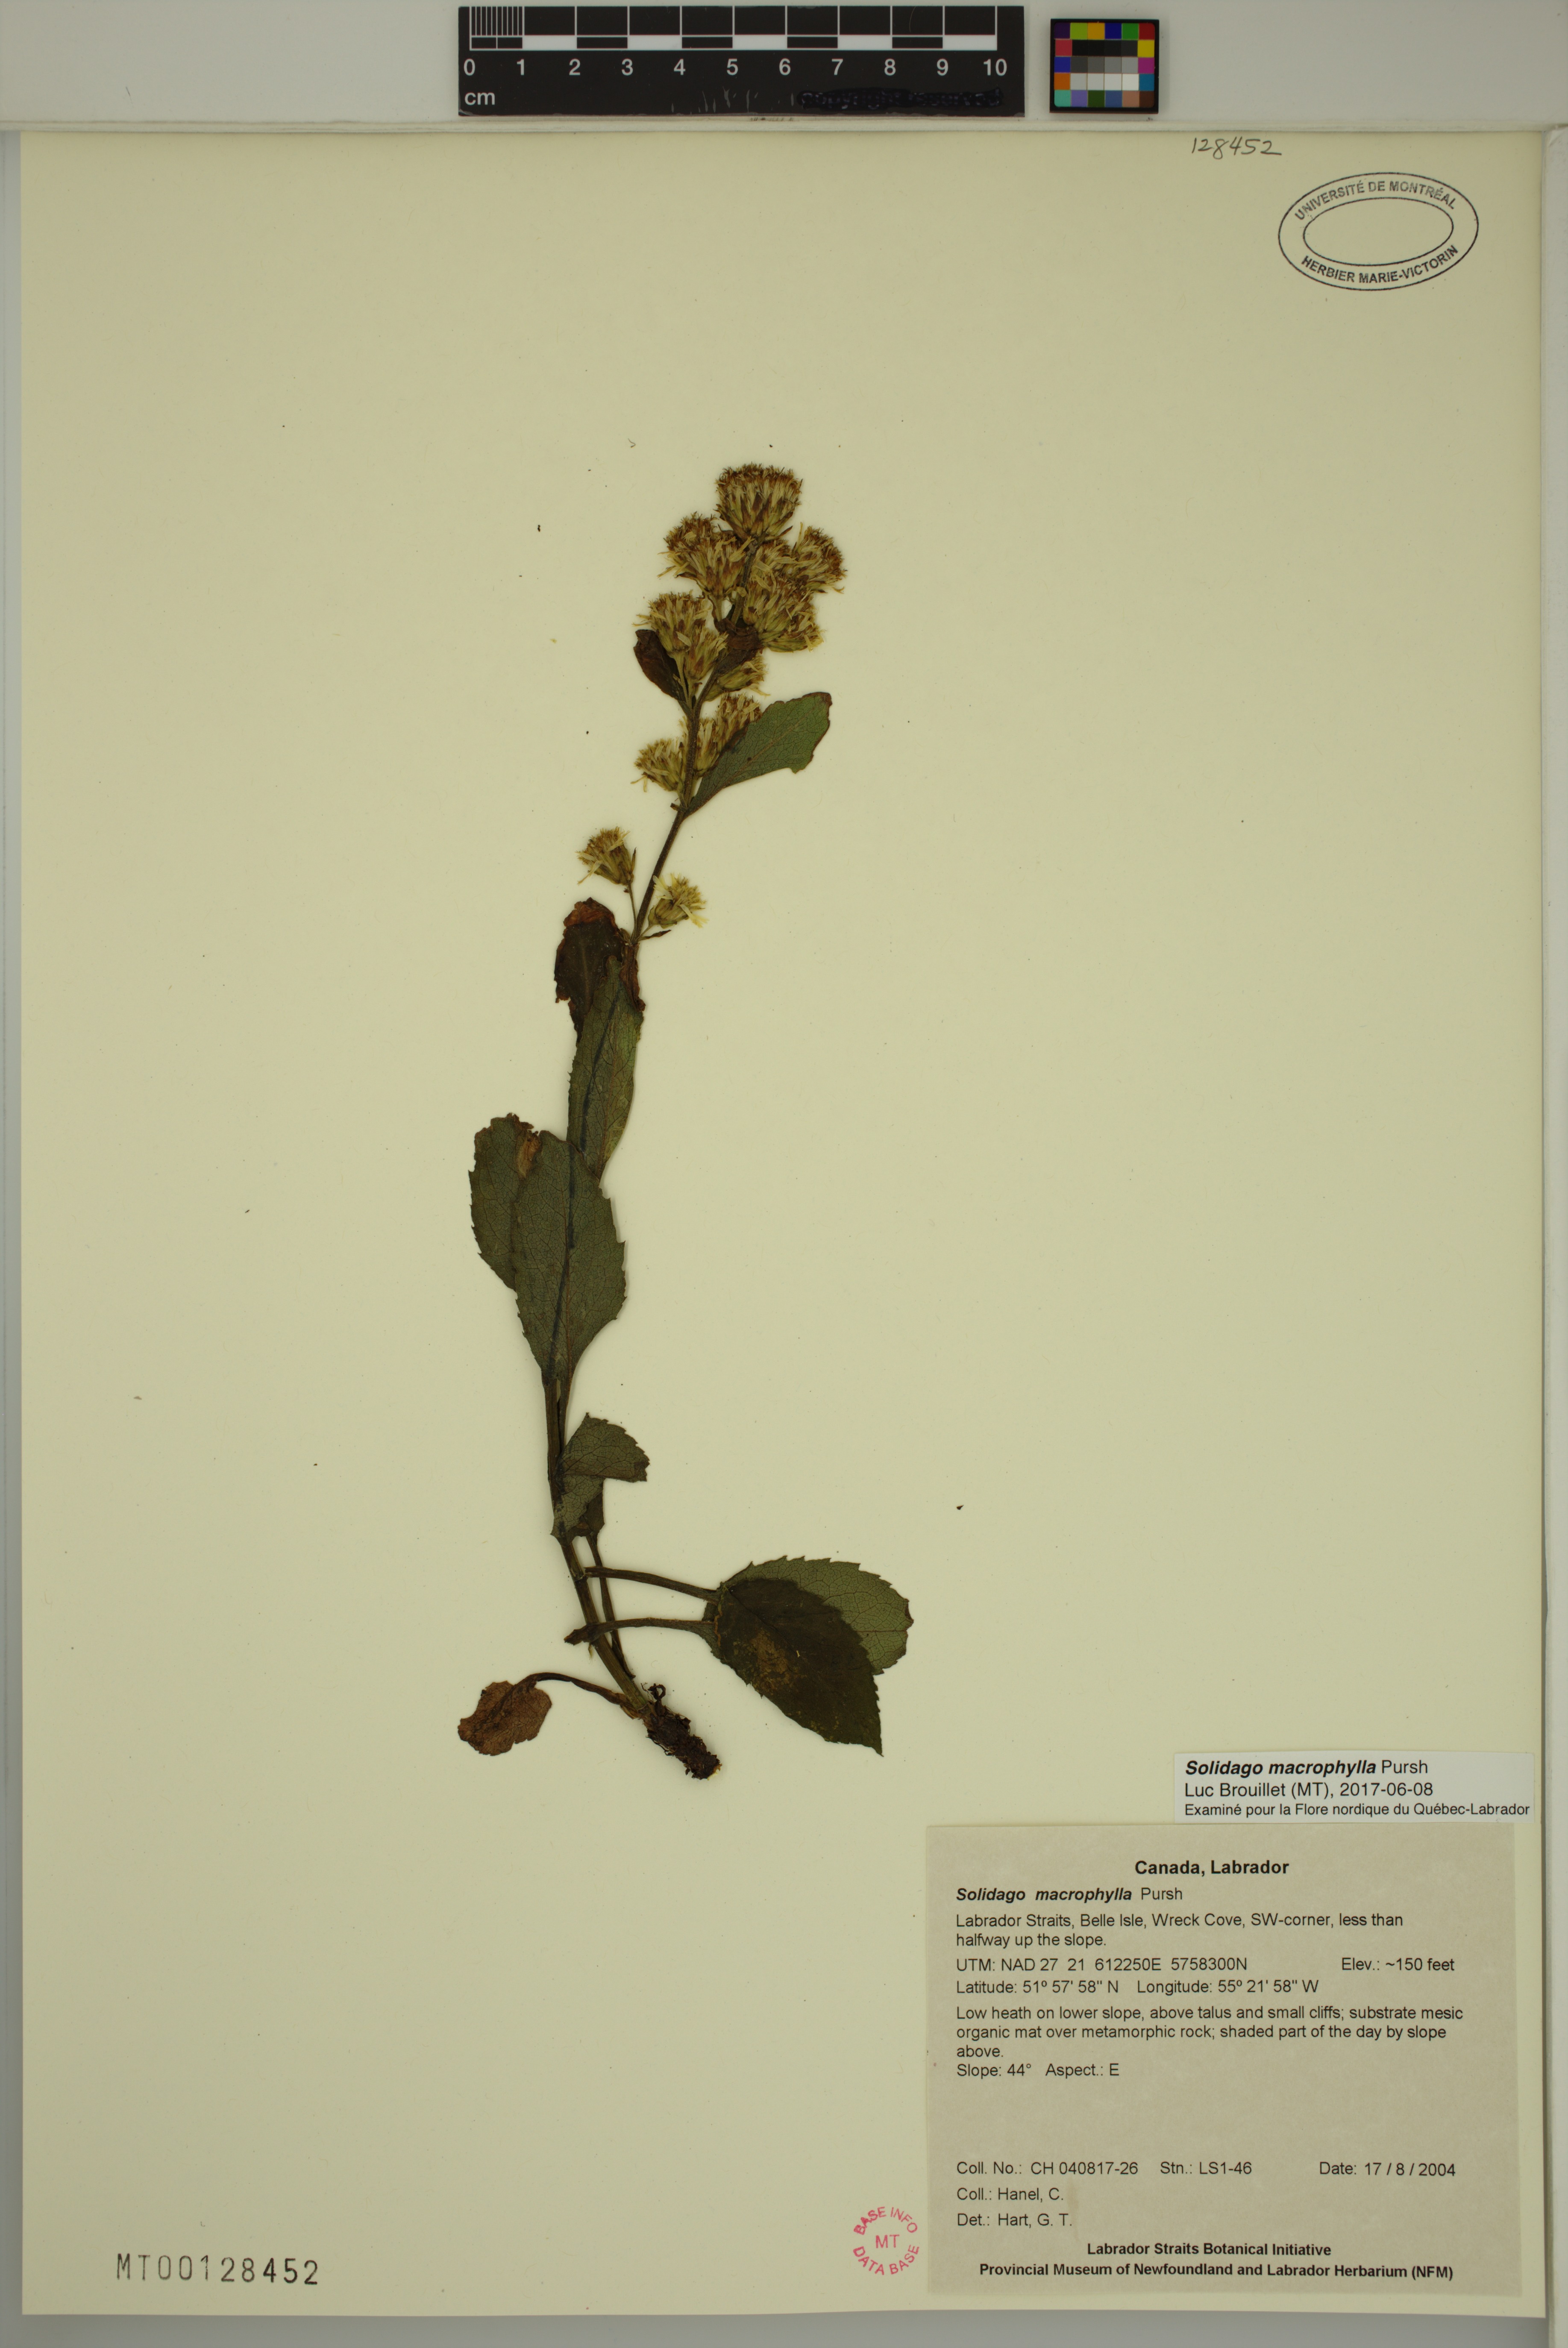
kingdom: Plantae
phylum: Tracheophyta
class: Magnoliopsida
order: Asterales
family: Asteraceae
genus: Solidago
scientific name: Solidago macrophylla
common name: Large-leaved goldenrod
